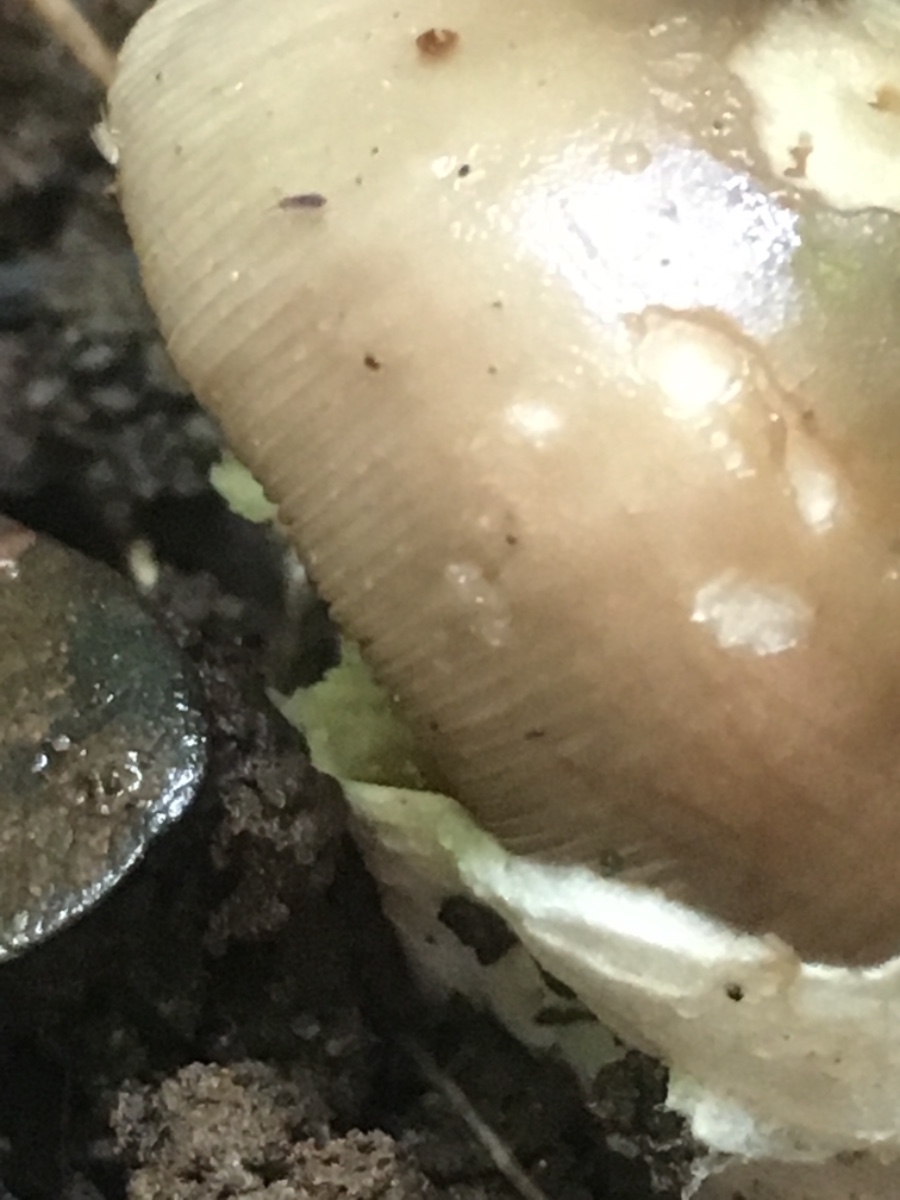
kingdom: Fungi
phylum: Basidiomycota
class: Agaricomycetes
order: Agaricales
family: Amanitaceae
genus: Amanita
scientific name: Amanita
